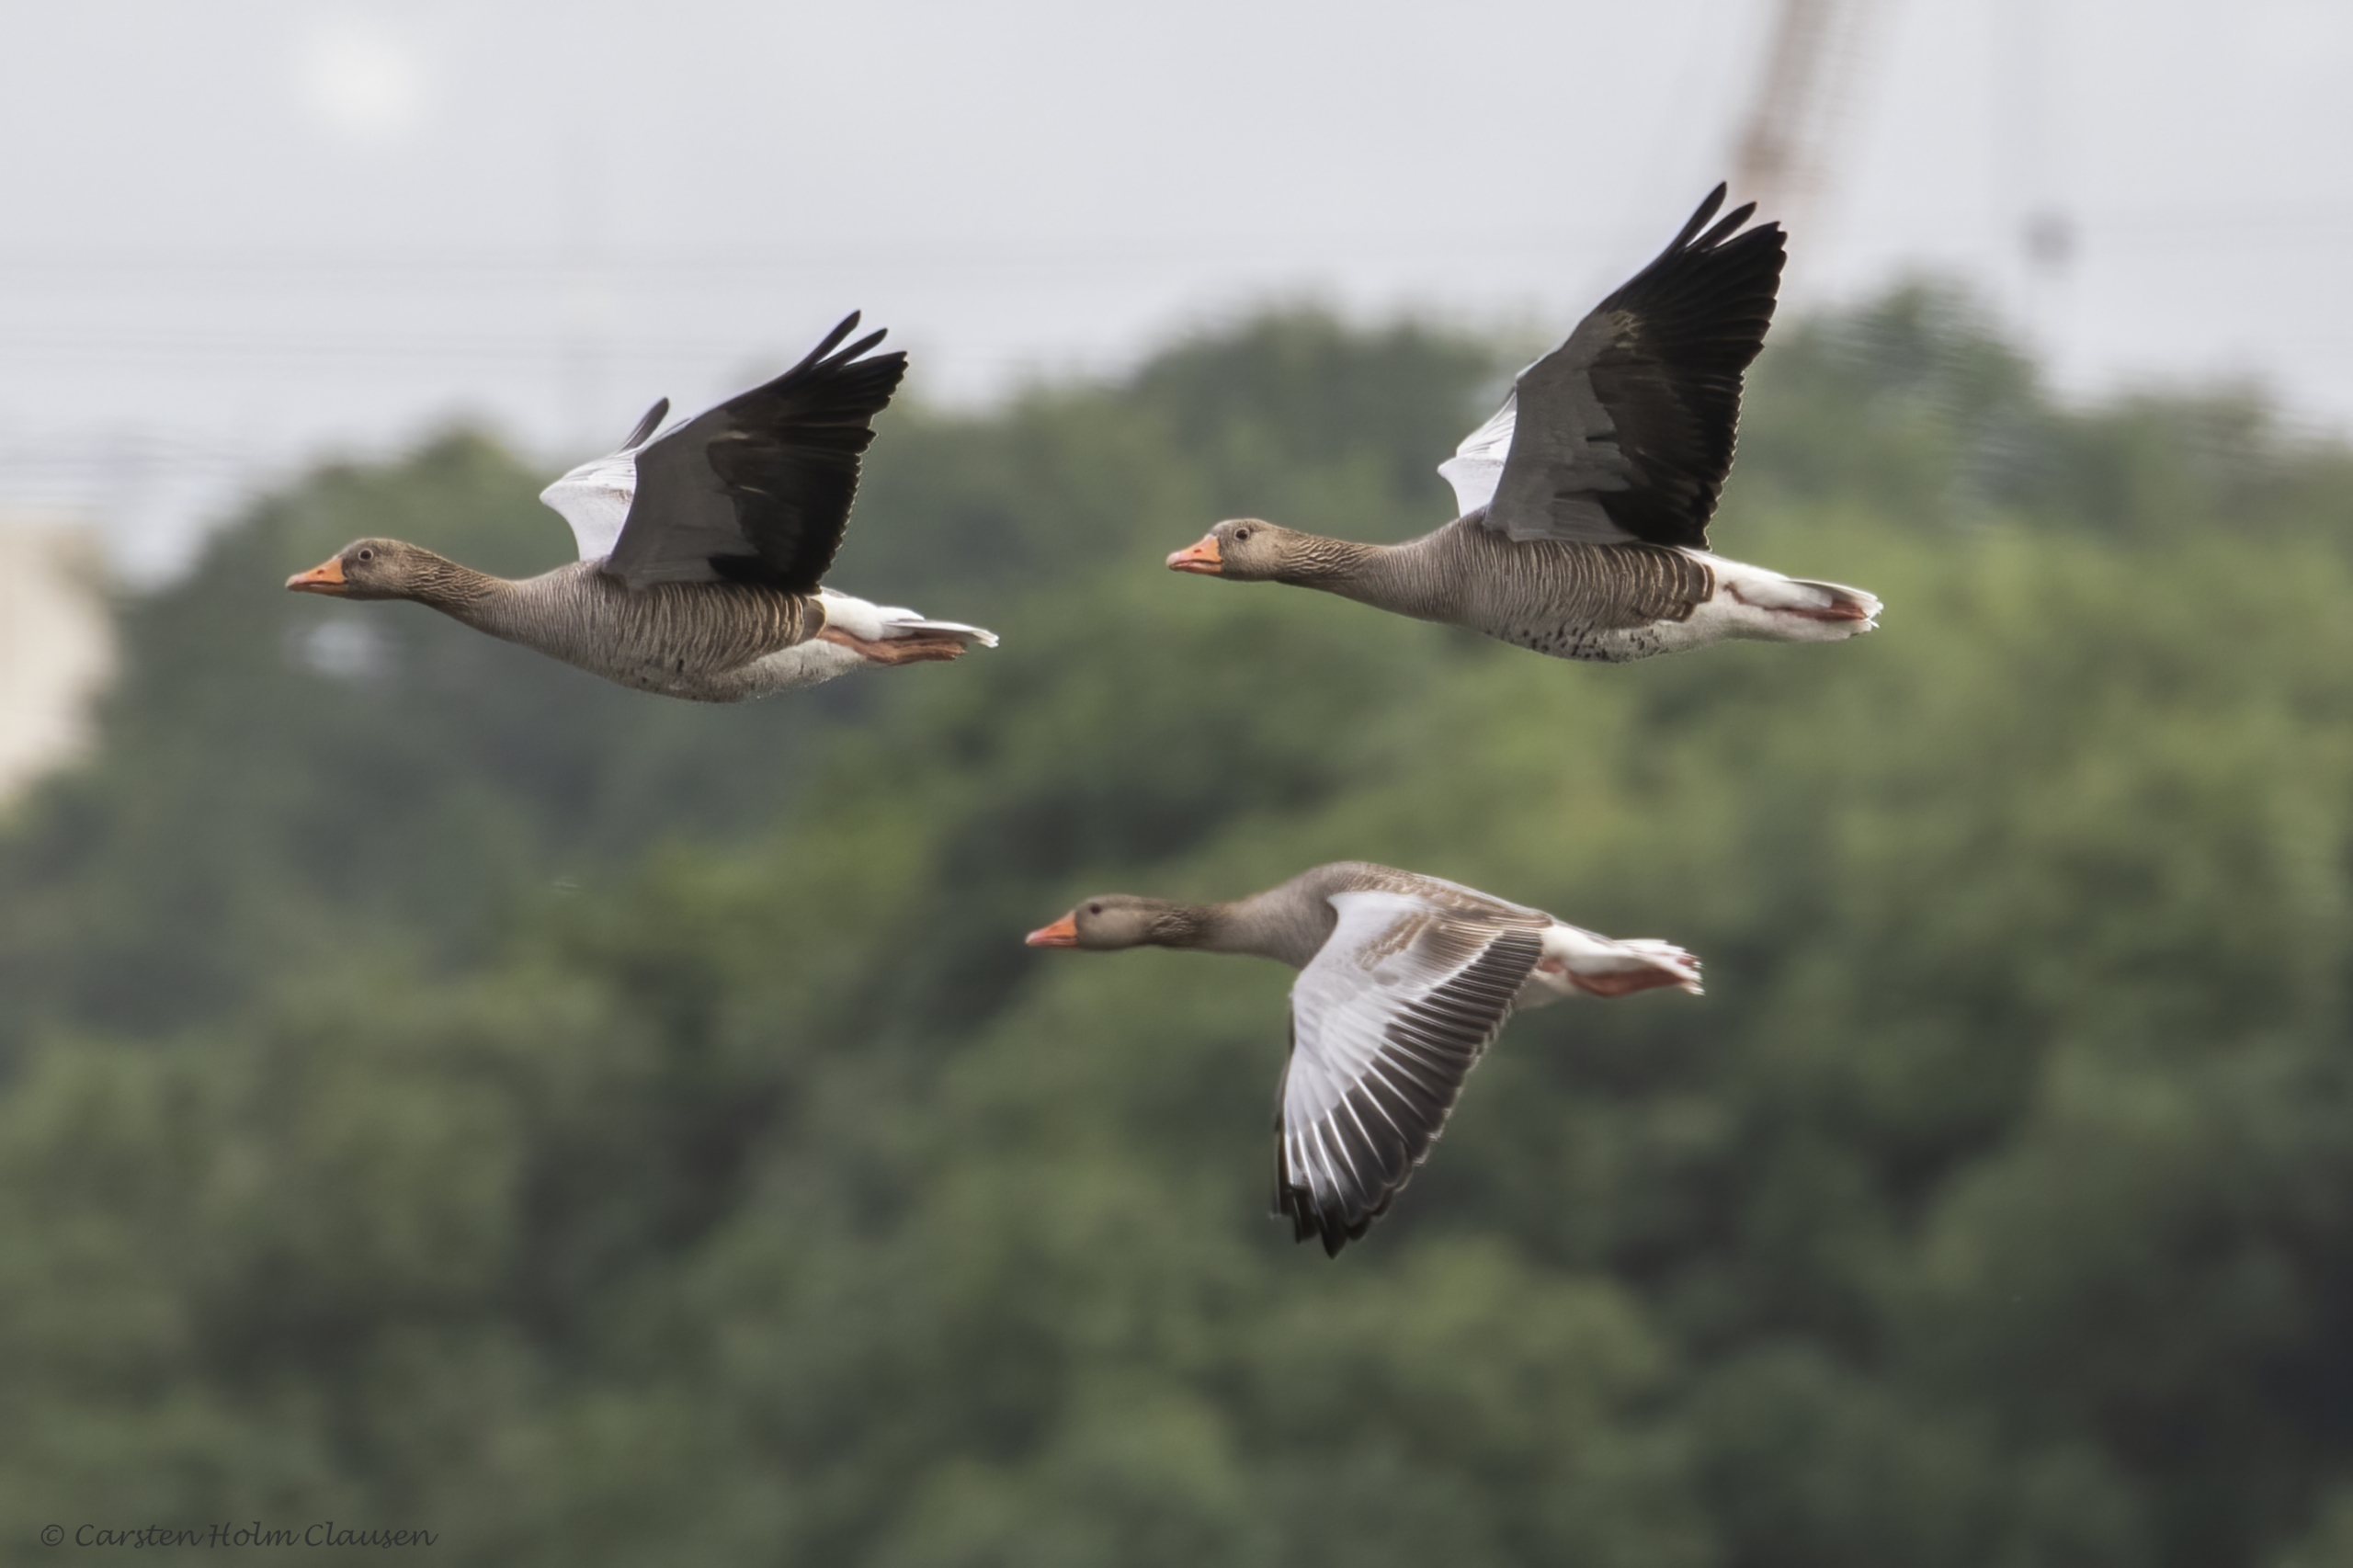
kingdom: Animalia
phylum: Chordata
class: Aves
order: Anseriformes
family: Anatidae
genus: Anser
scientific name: Anser anser
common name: Grågås
